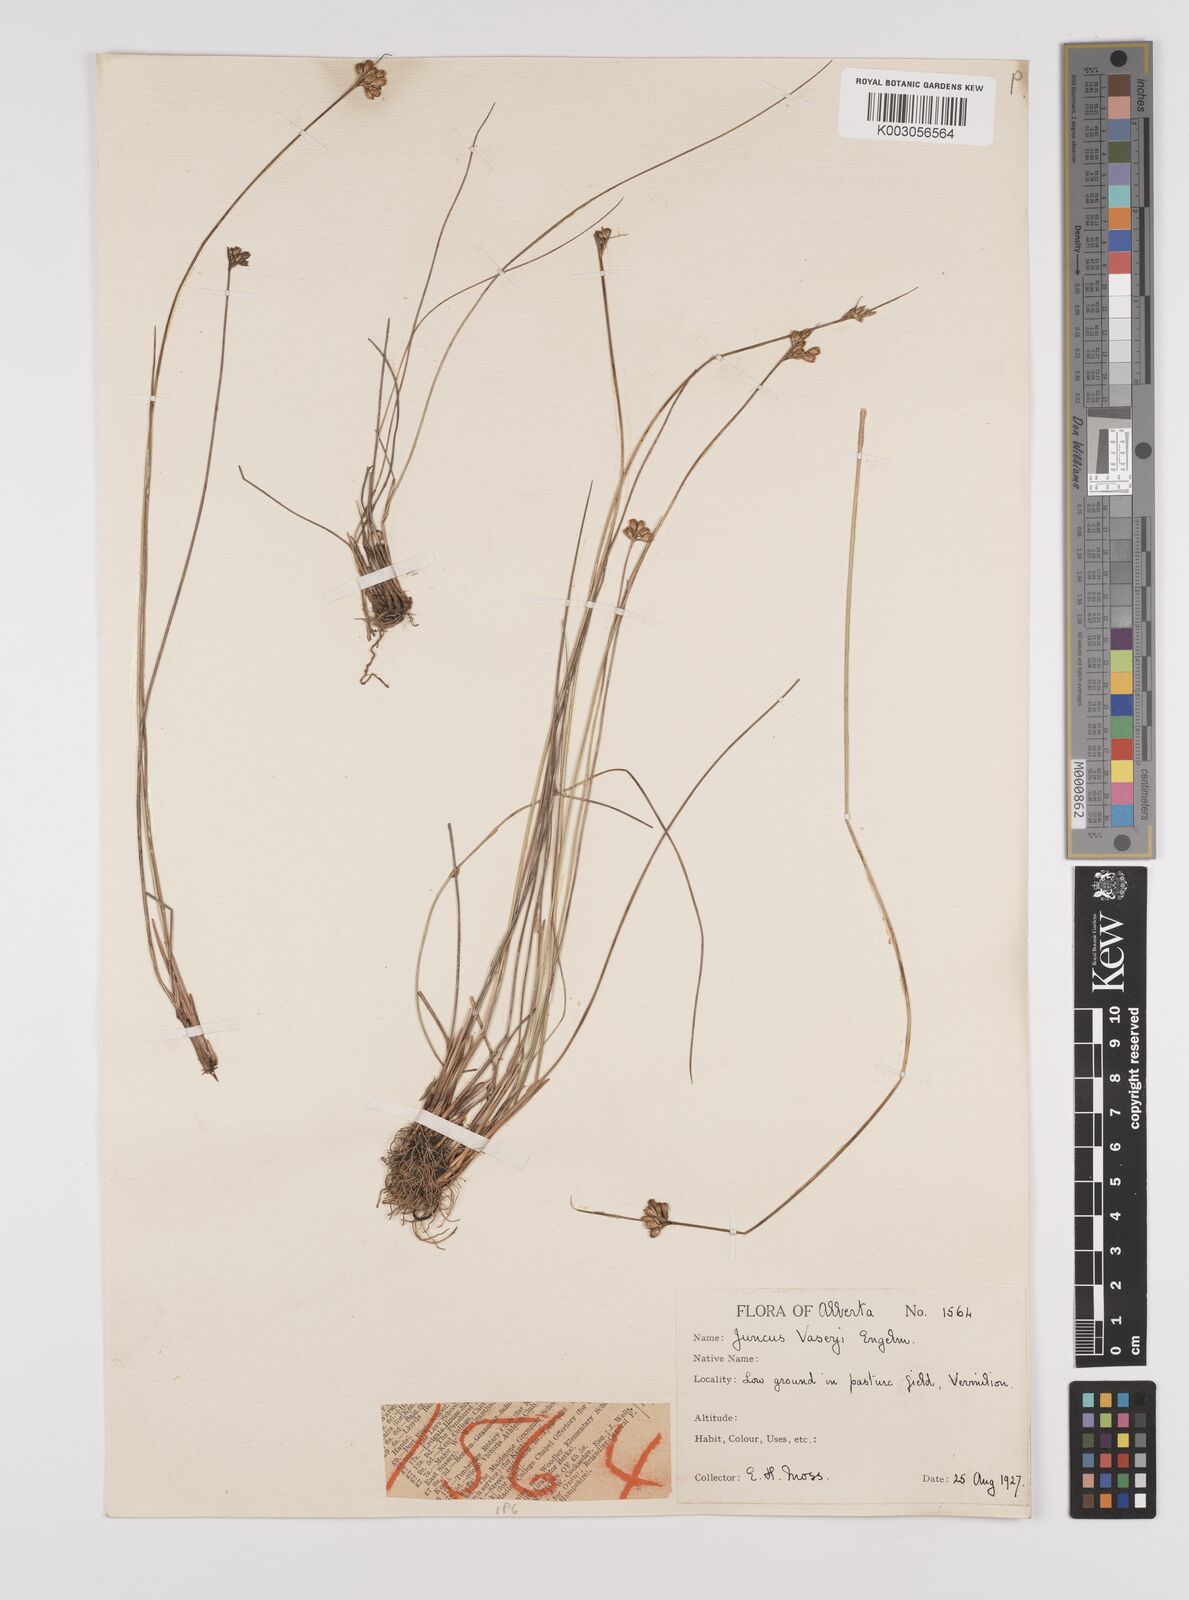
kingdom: Plantae
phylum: Tracheophyta
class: Liliopsida
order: Poales
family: Juncaceae
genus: Juncus
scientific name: Juncus vaseyi
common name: Big-headed rush
